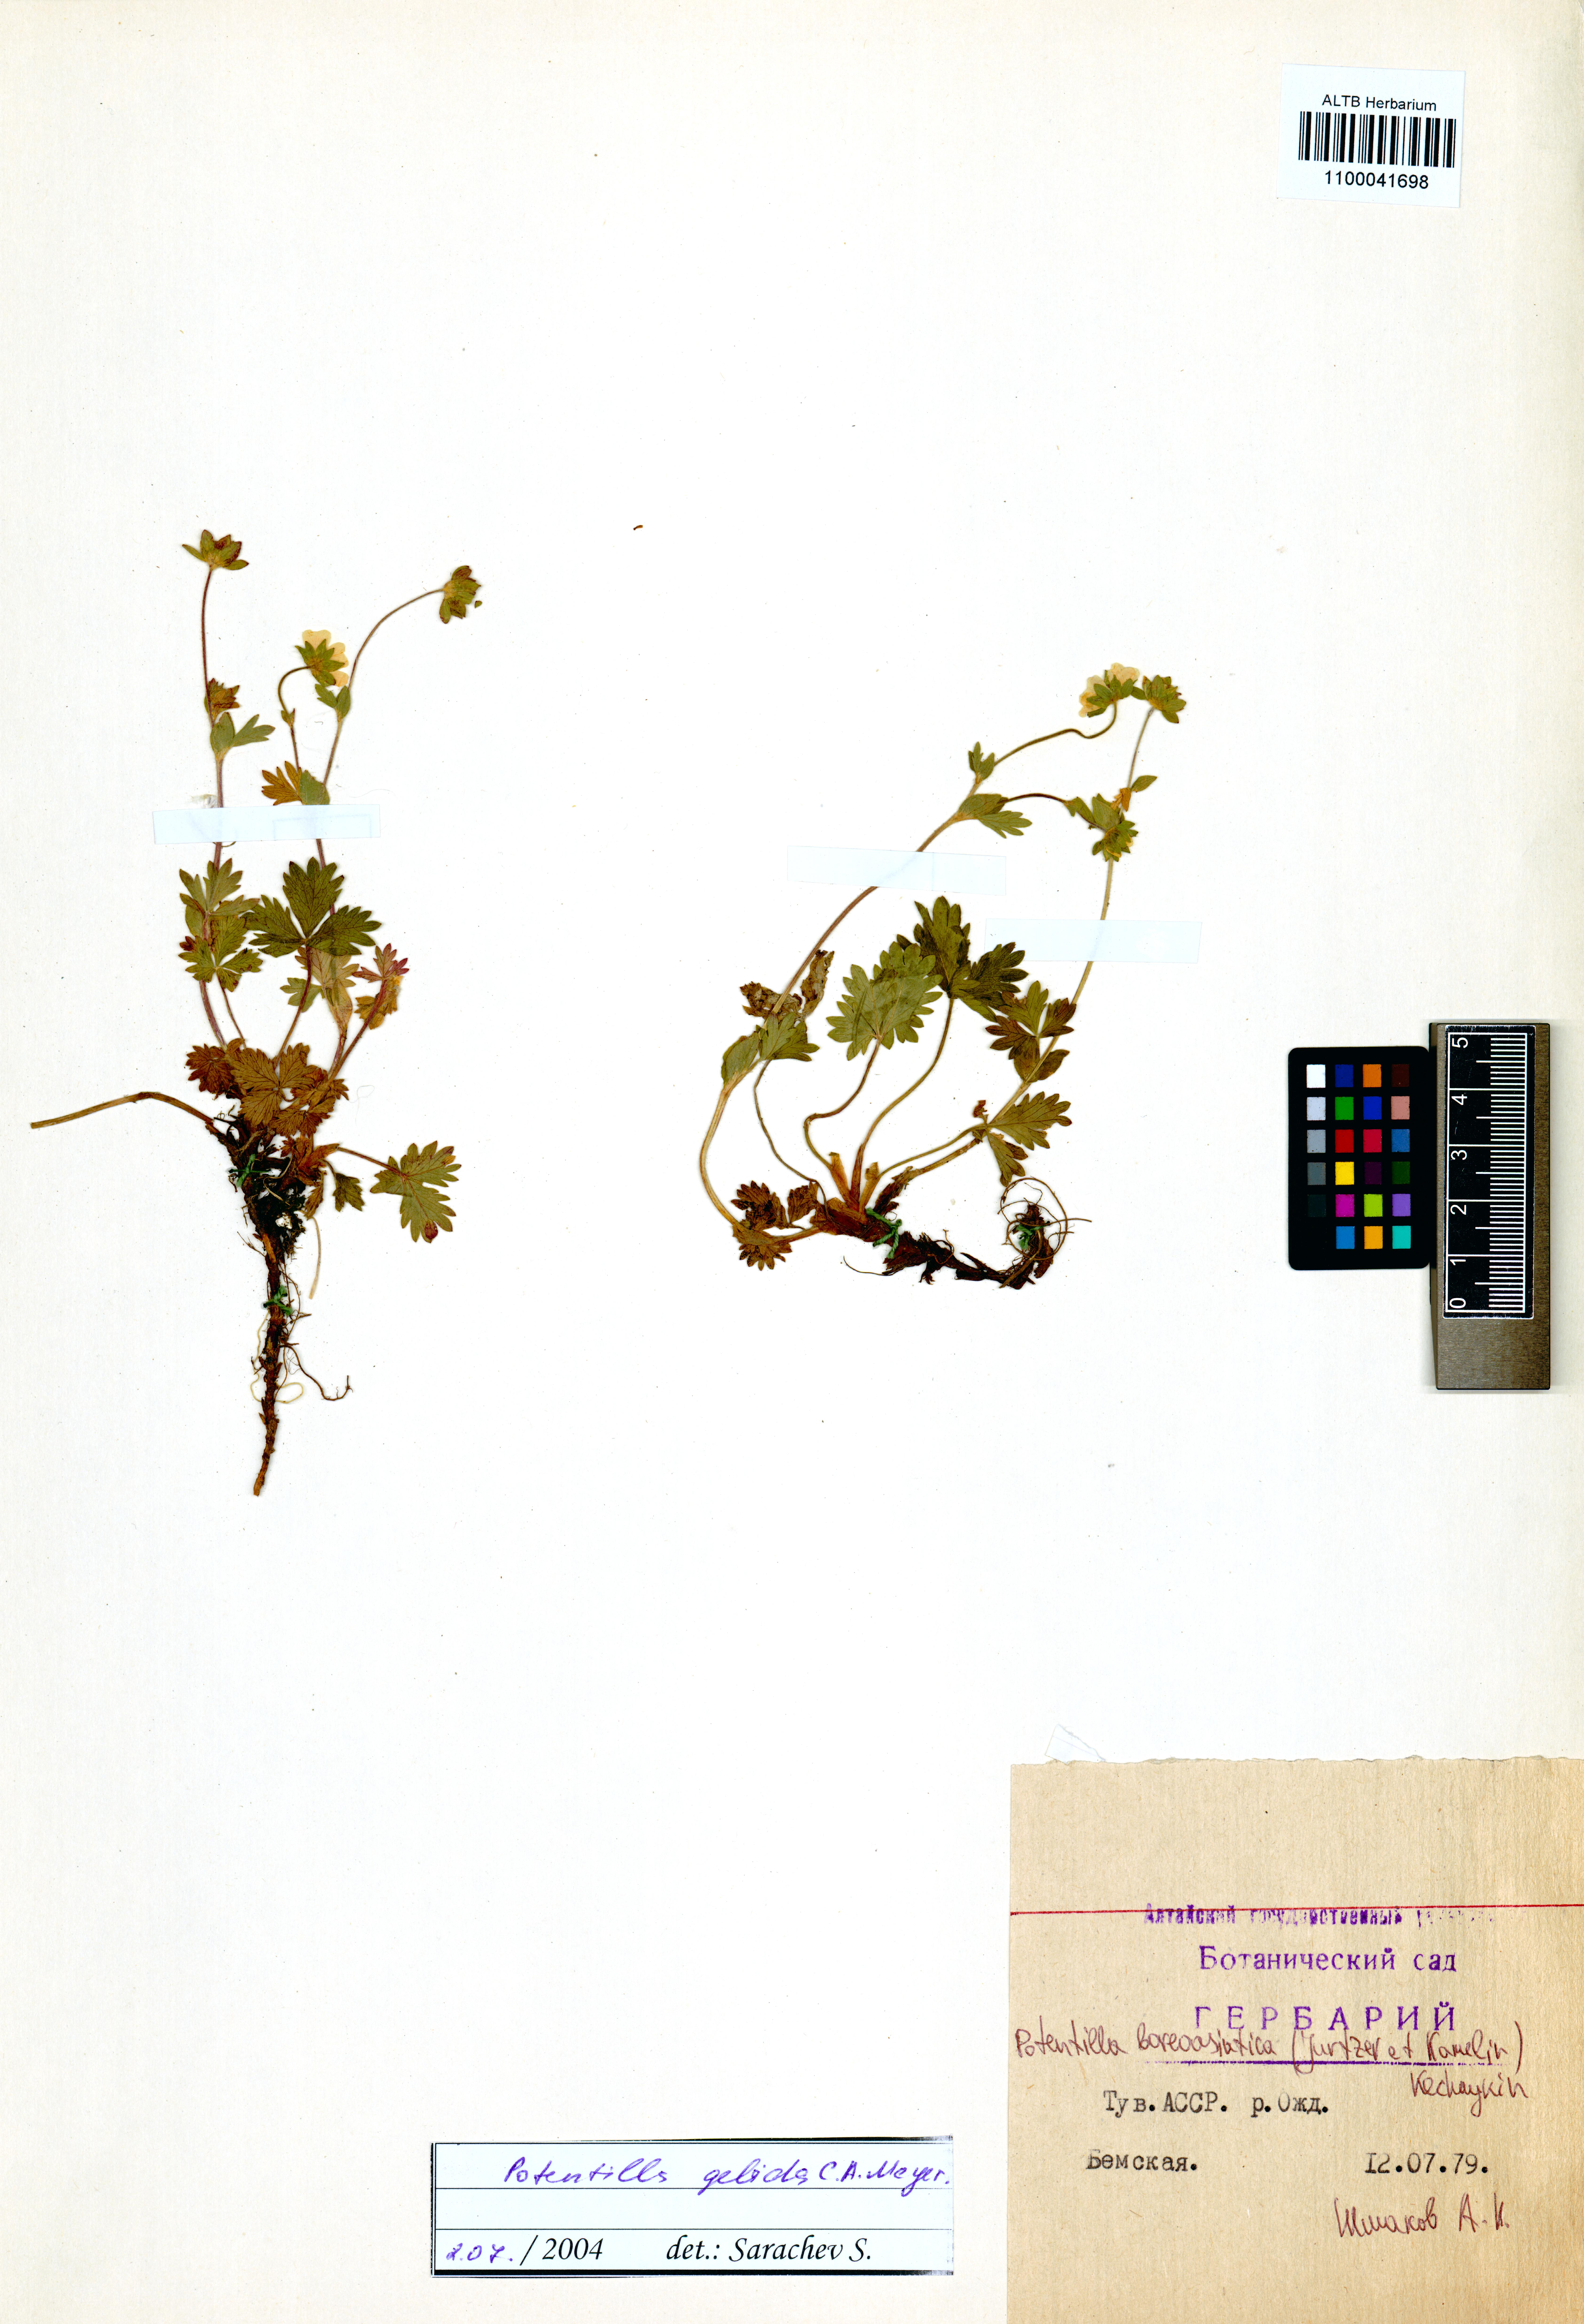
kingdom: Plantae
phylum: Tracheophyta
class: Magnoliopsida
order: Rosales
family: Rosaceae
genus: Potentilla
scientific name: Potentilla
